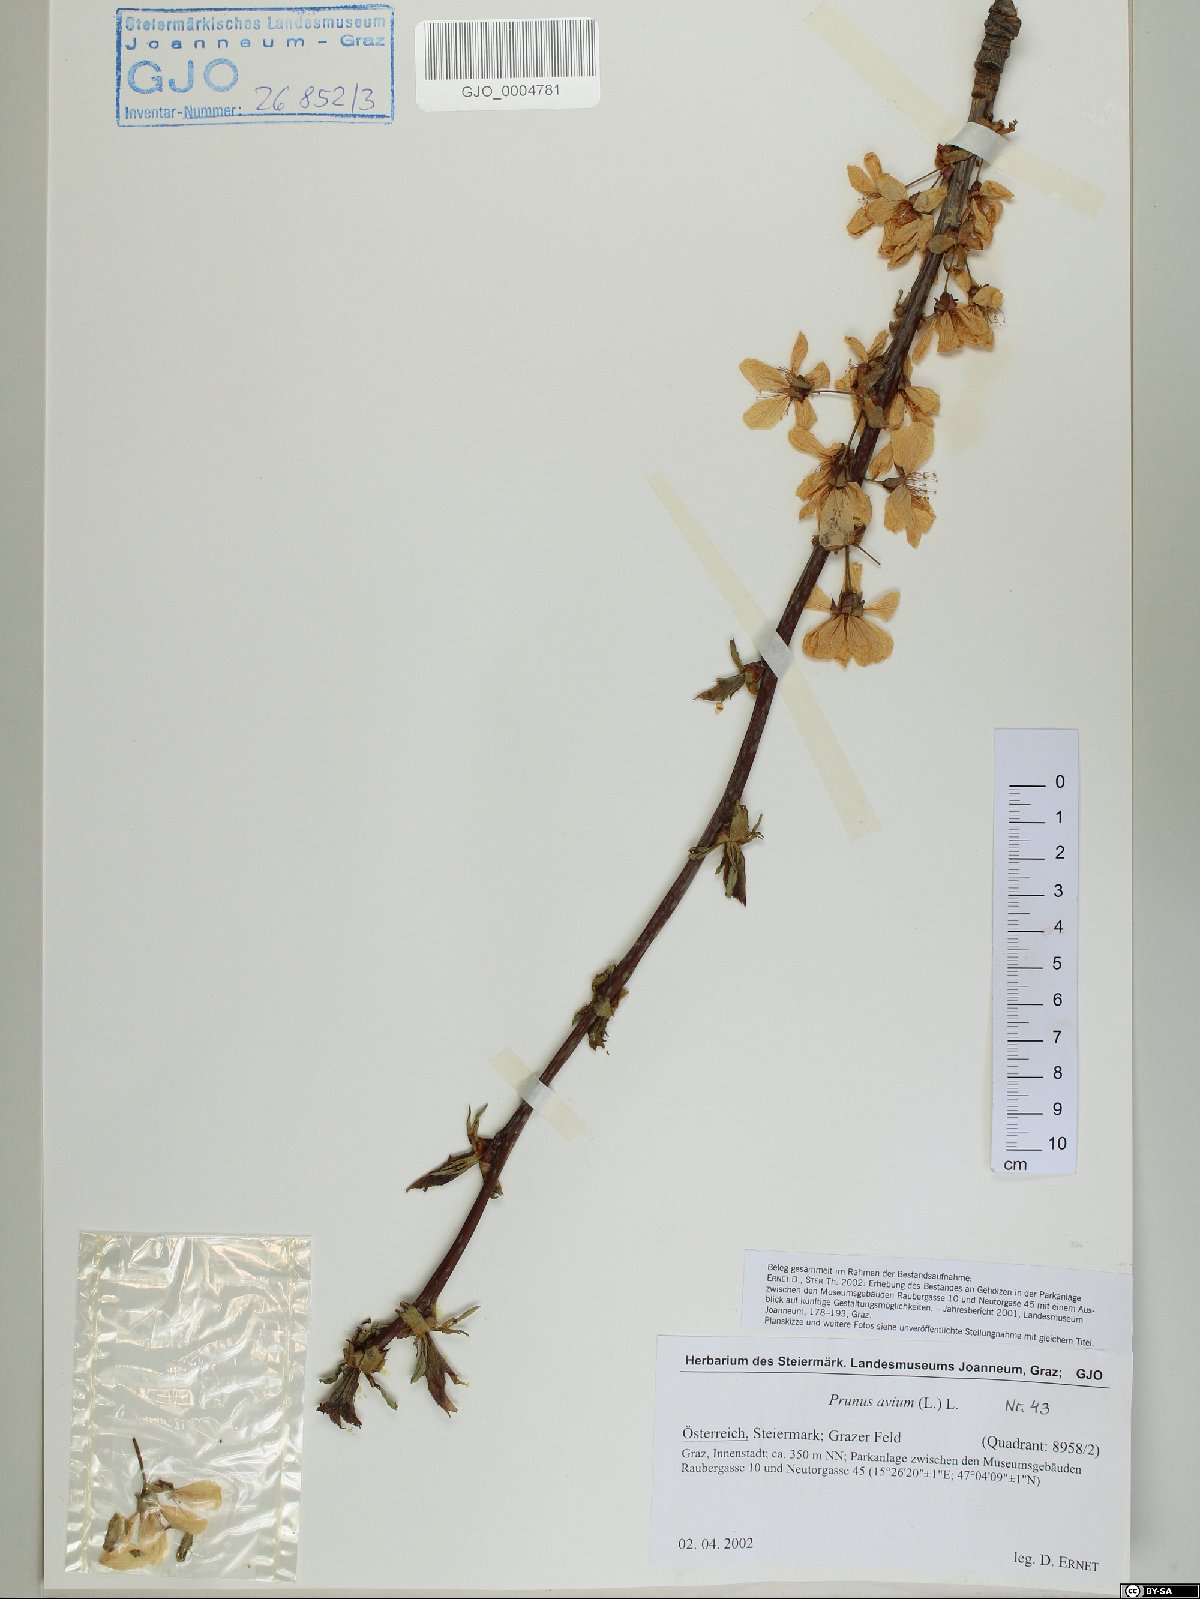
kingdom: Plantae
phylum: Tracheophyta
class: Magnoliopsida
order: Rosales
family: Rosaceae
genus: Prunus
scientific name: Prunus avium
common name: Sweet cherry
